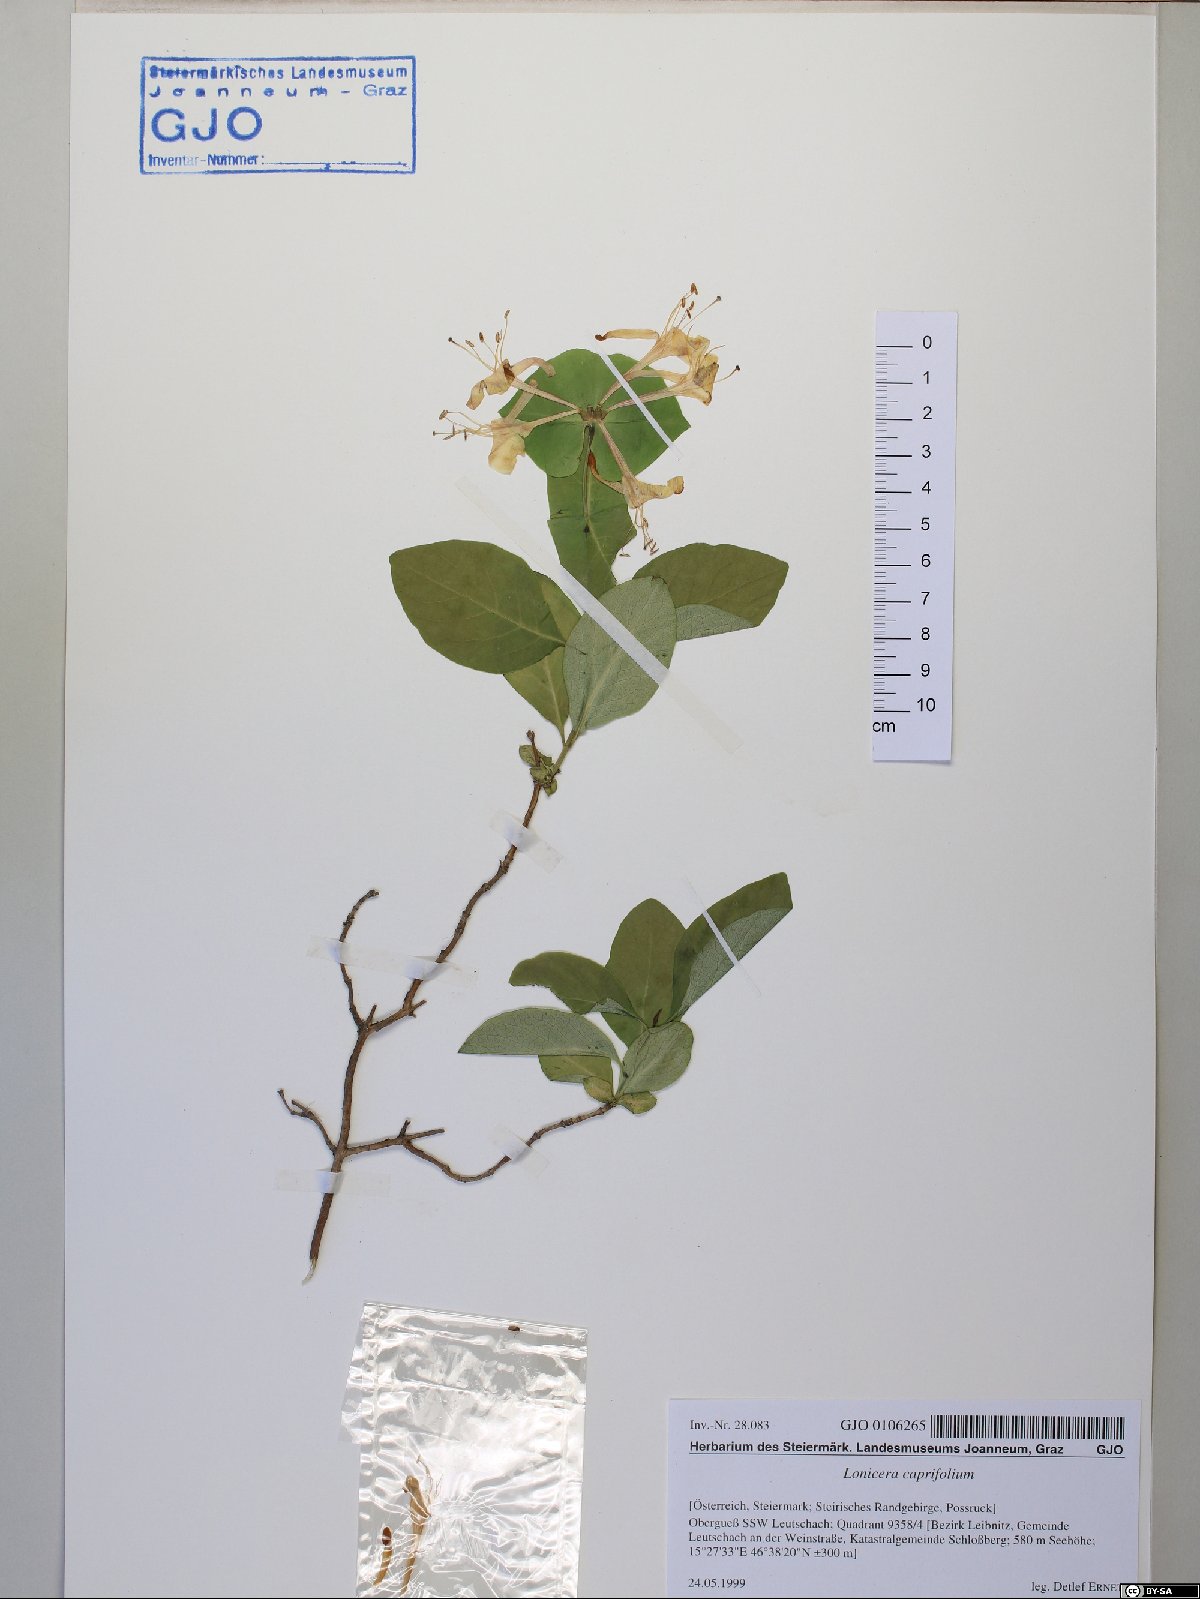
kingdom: Plantae
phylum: Tracheophyta
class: Magnoliopsida
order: Dipsacales
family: Caprifoliaceae
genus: Lonicera
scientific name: Lonicera caprifolium
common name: Perfoliate honeysuckle
